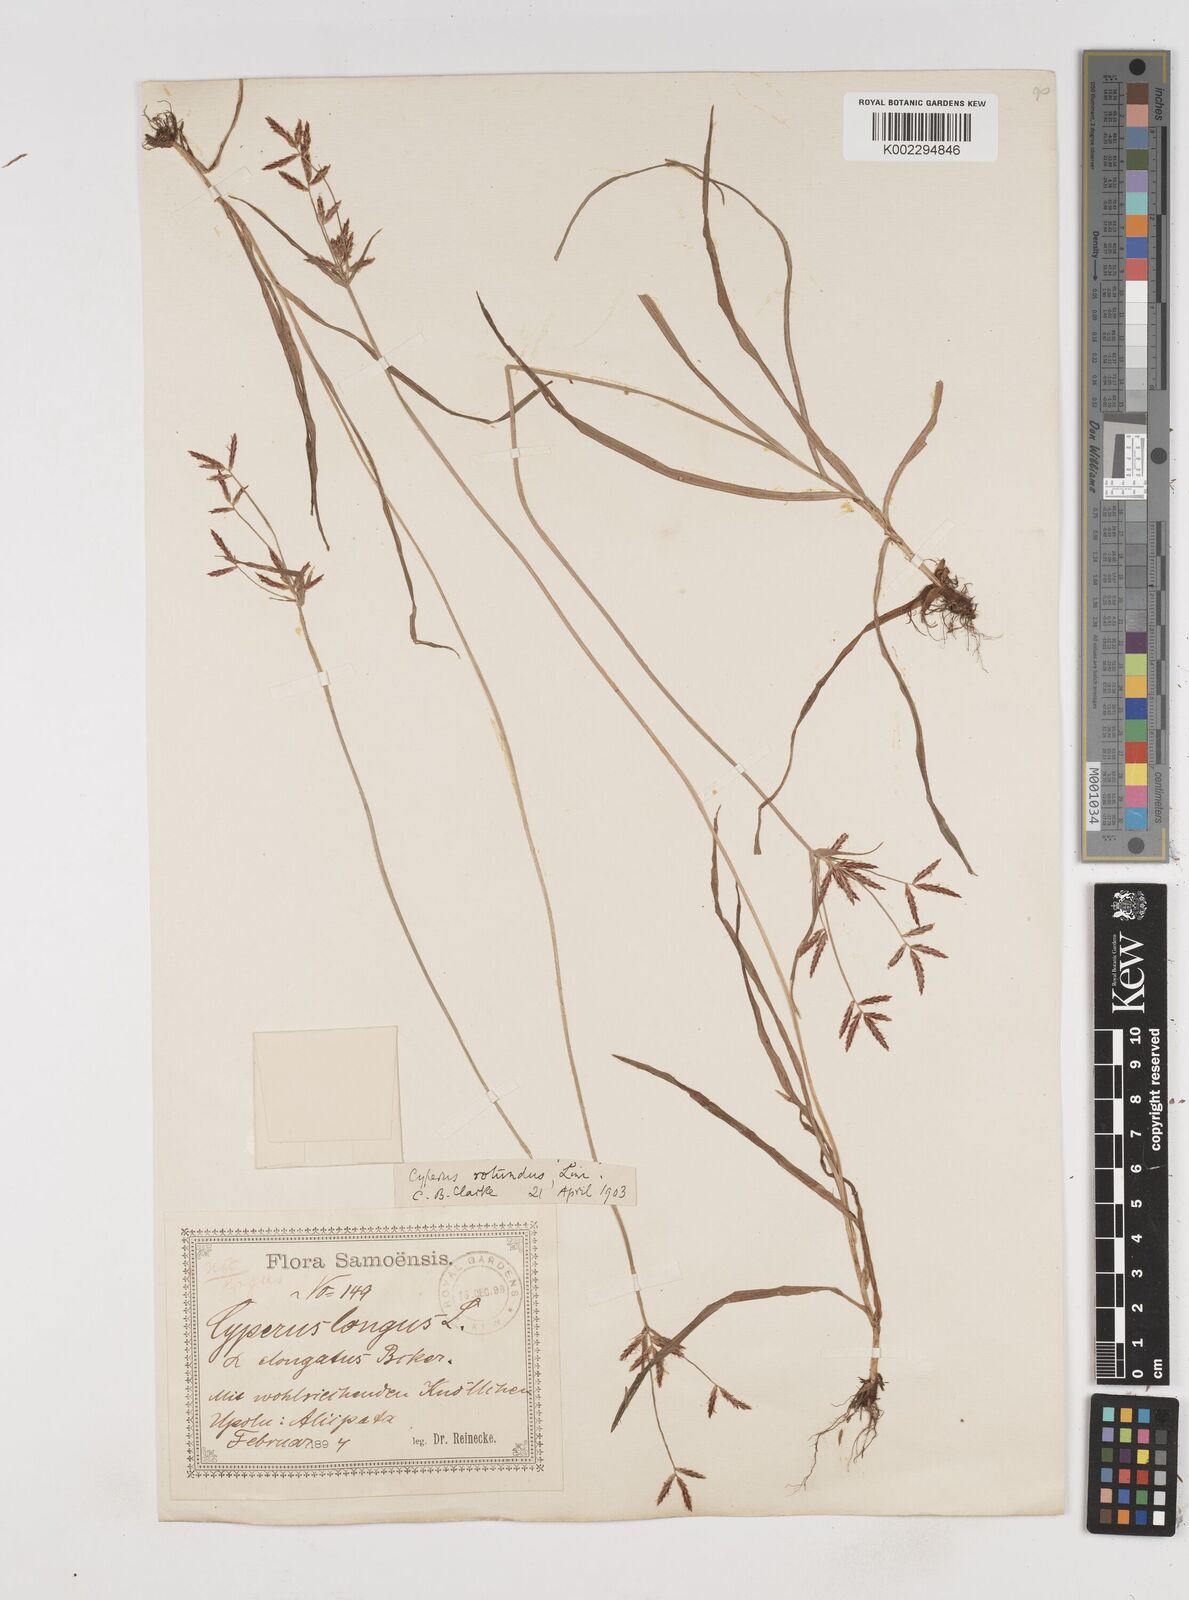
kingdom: Plantae
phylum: Tracheophyta
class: Liliopsida
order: Poales
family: Cyperaceae
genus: Cyperus
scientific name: Cyperus rotundus
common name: Nutgrass
